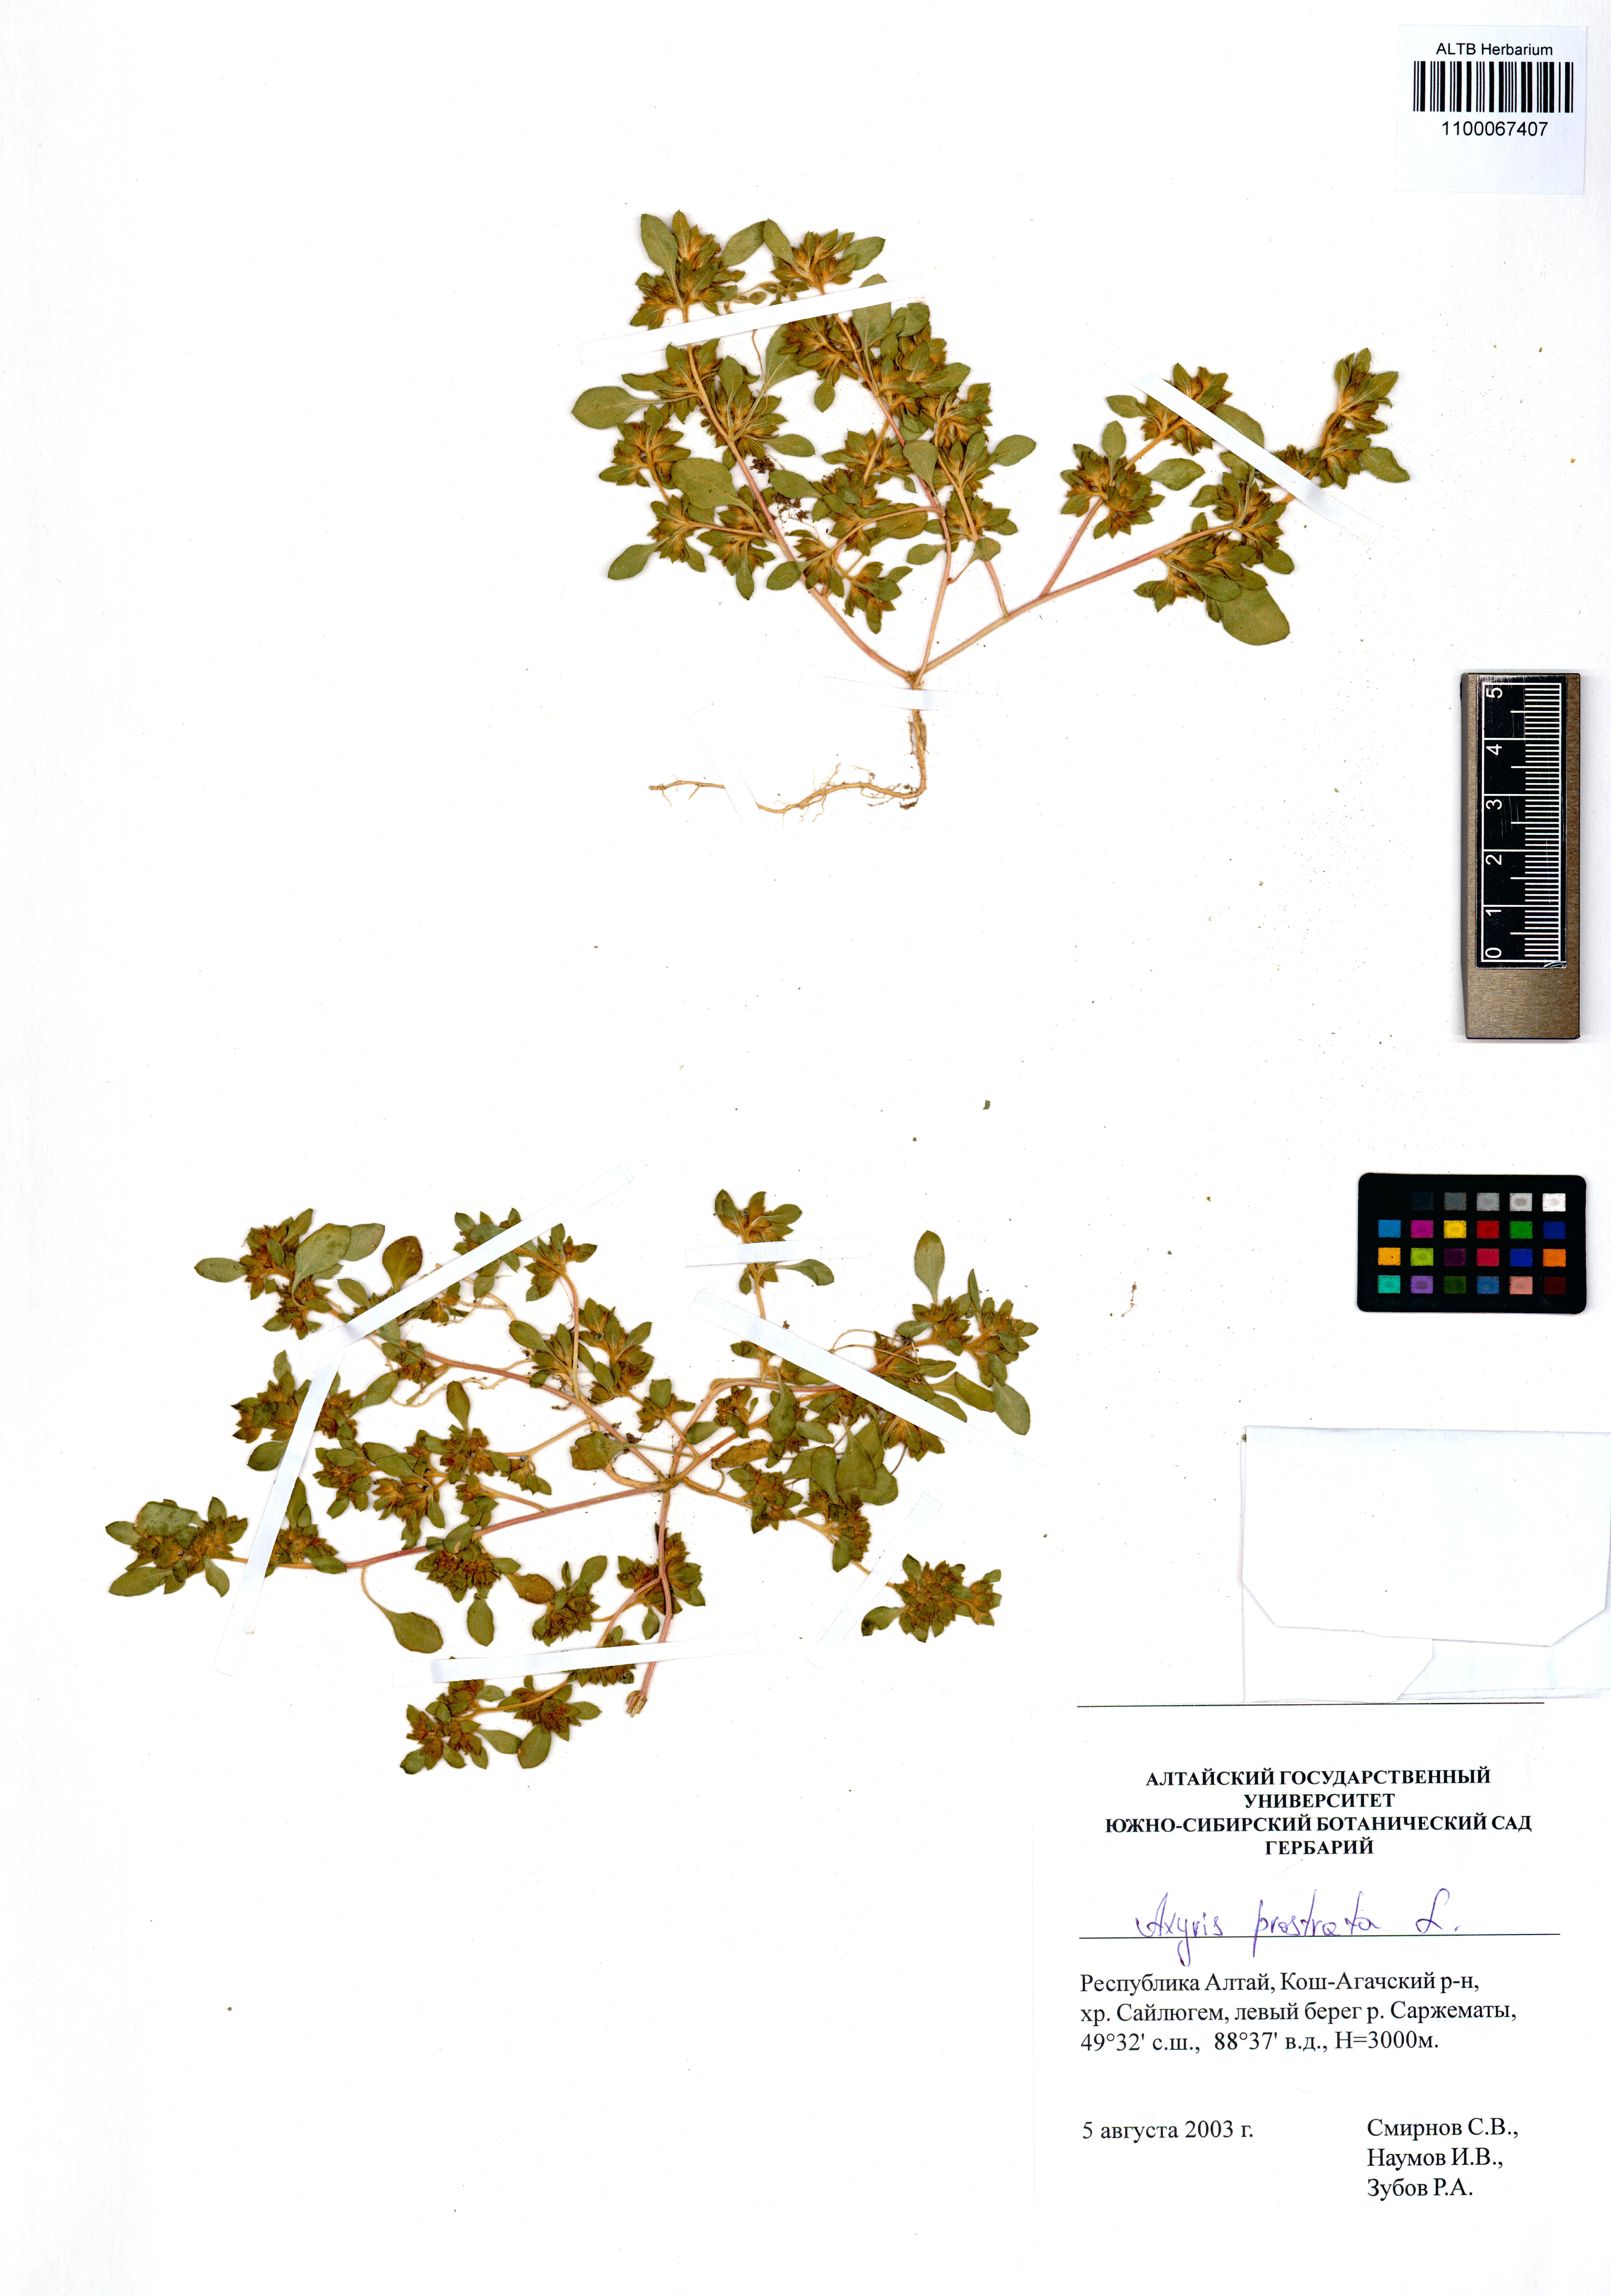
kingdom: Plantae
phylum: Tracheophyta
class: Magnoliopsida
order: Caryophyllales
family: Amaranthaceae
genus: Axyris
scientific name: Axyris prostrata
